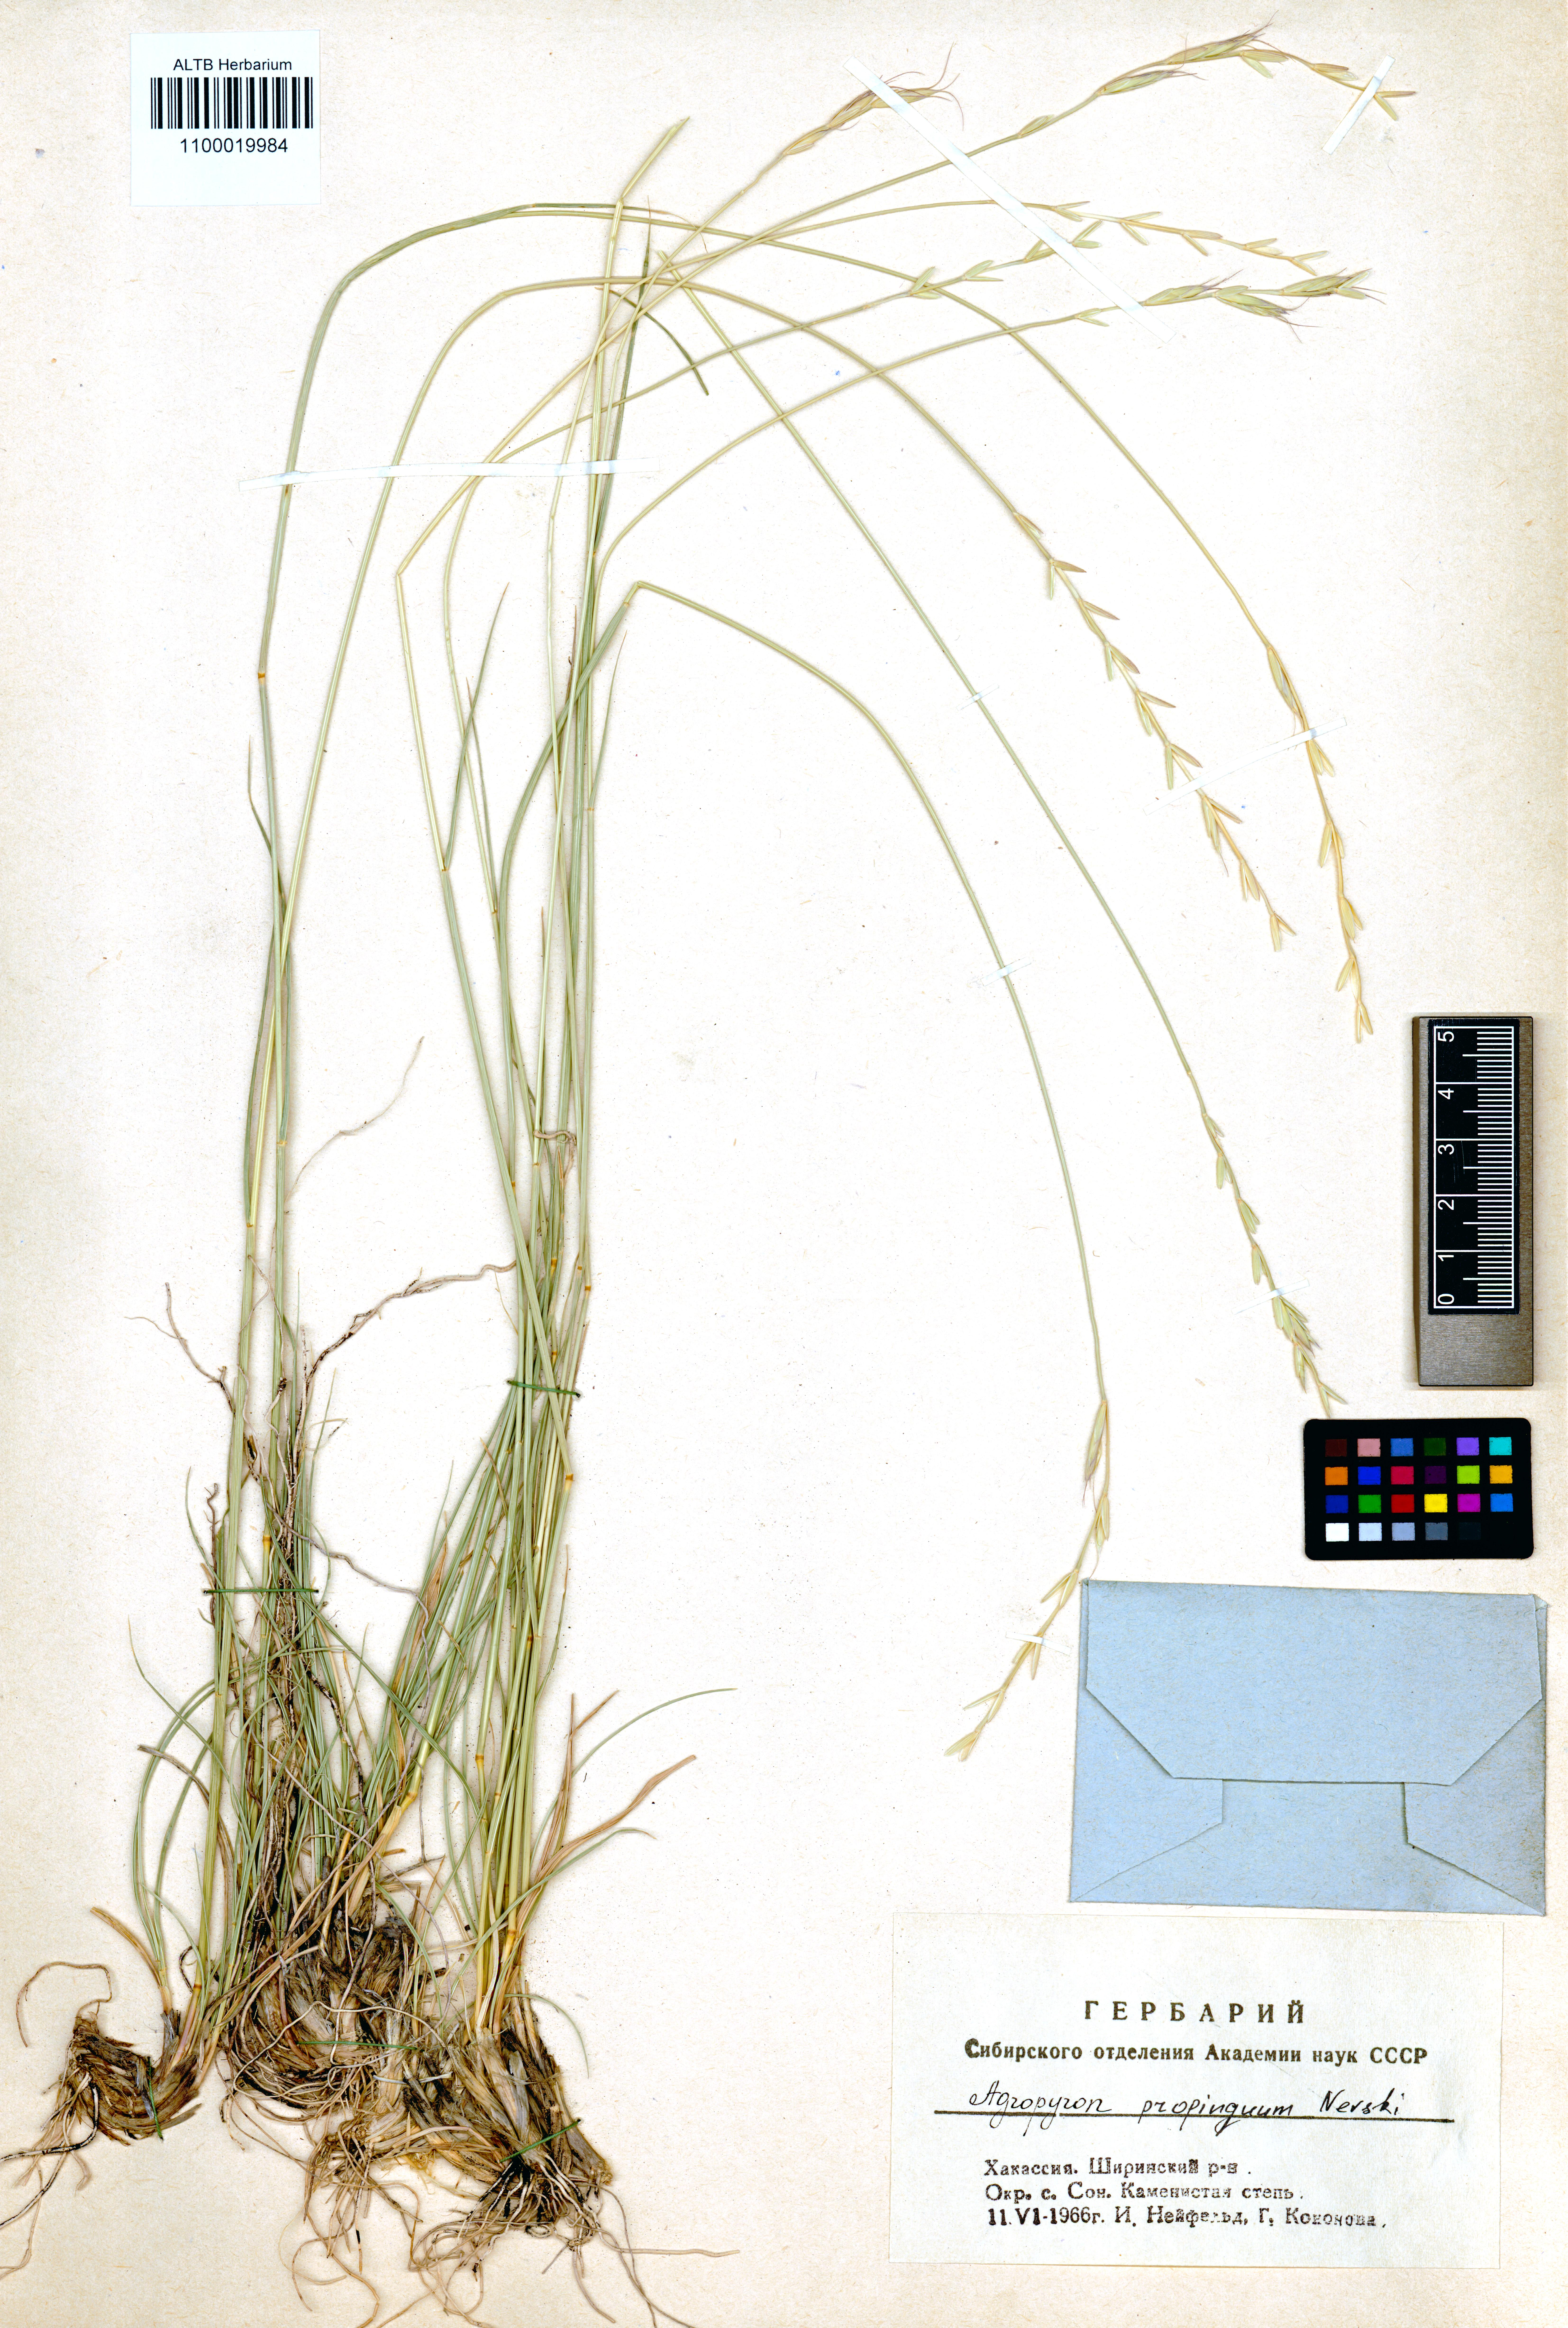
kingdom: Plantae
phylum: Tracheophyta
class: Liliopsida
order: Poales
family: Poaceae
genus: Pseudoroegneria
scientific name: Pseudoroegneria reflexiaristata
